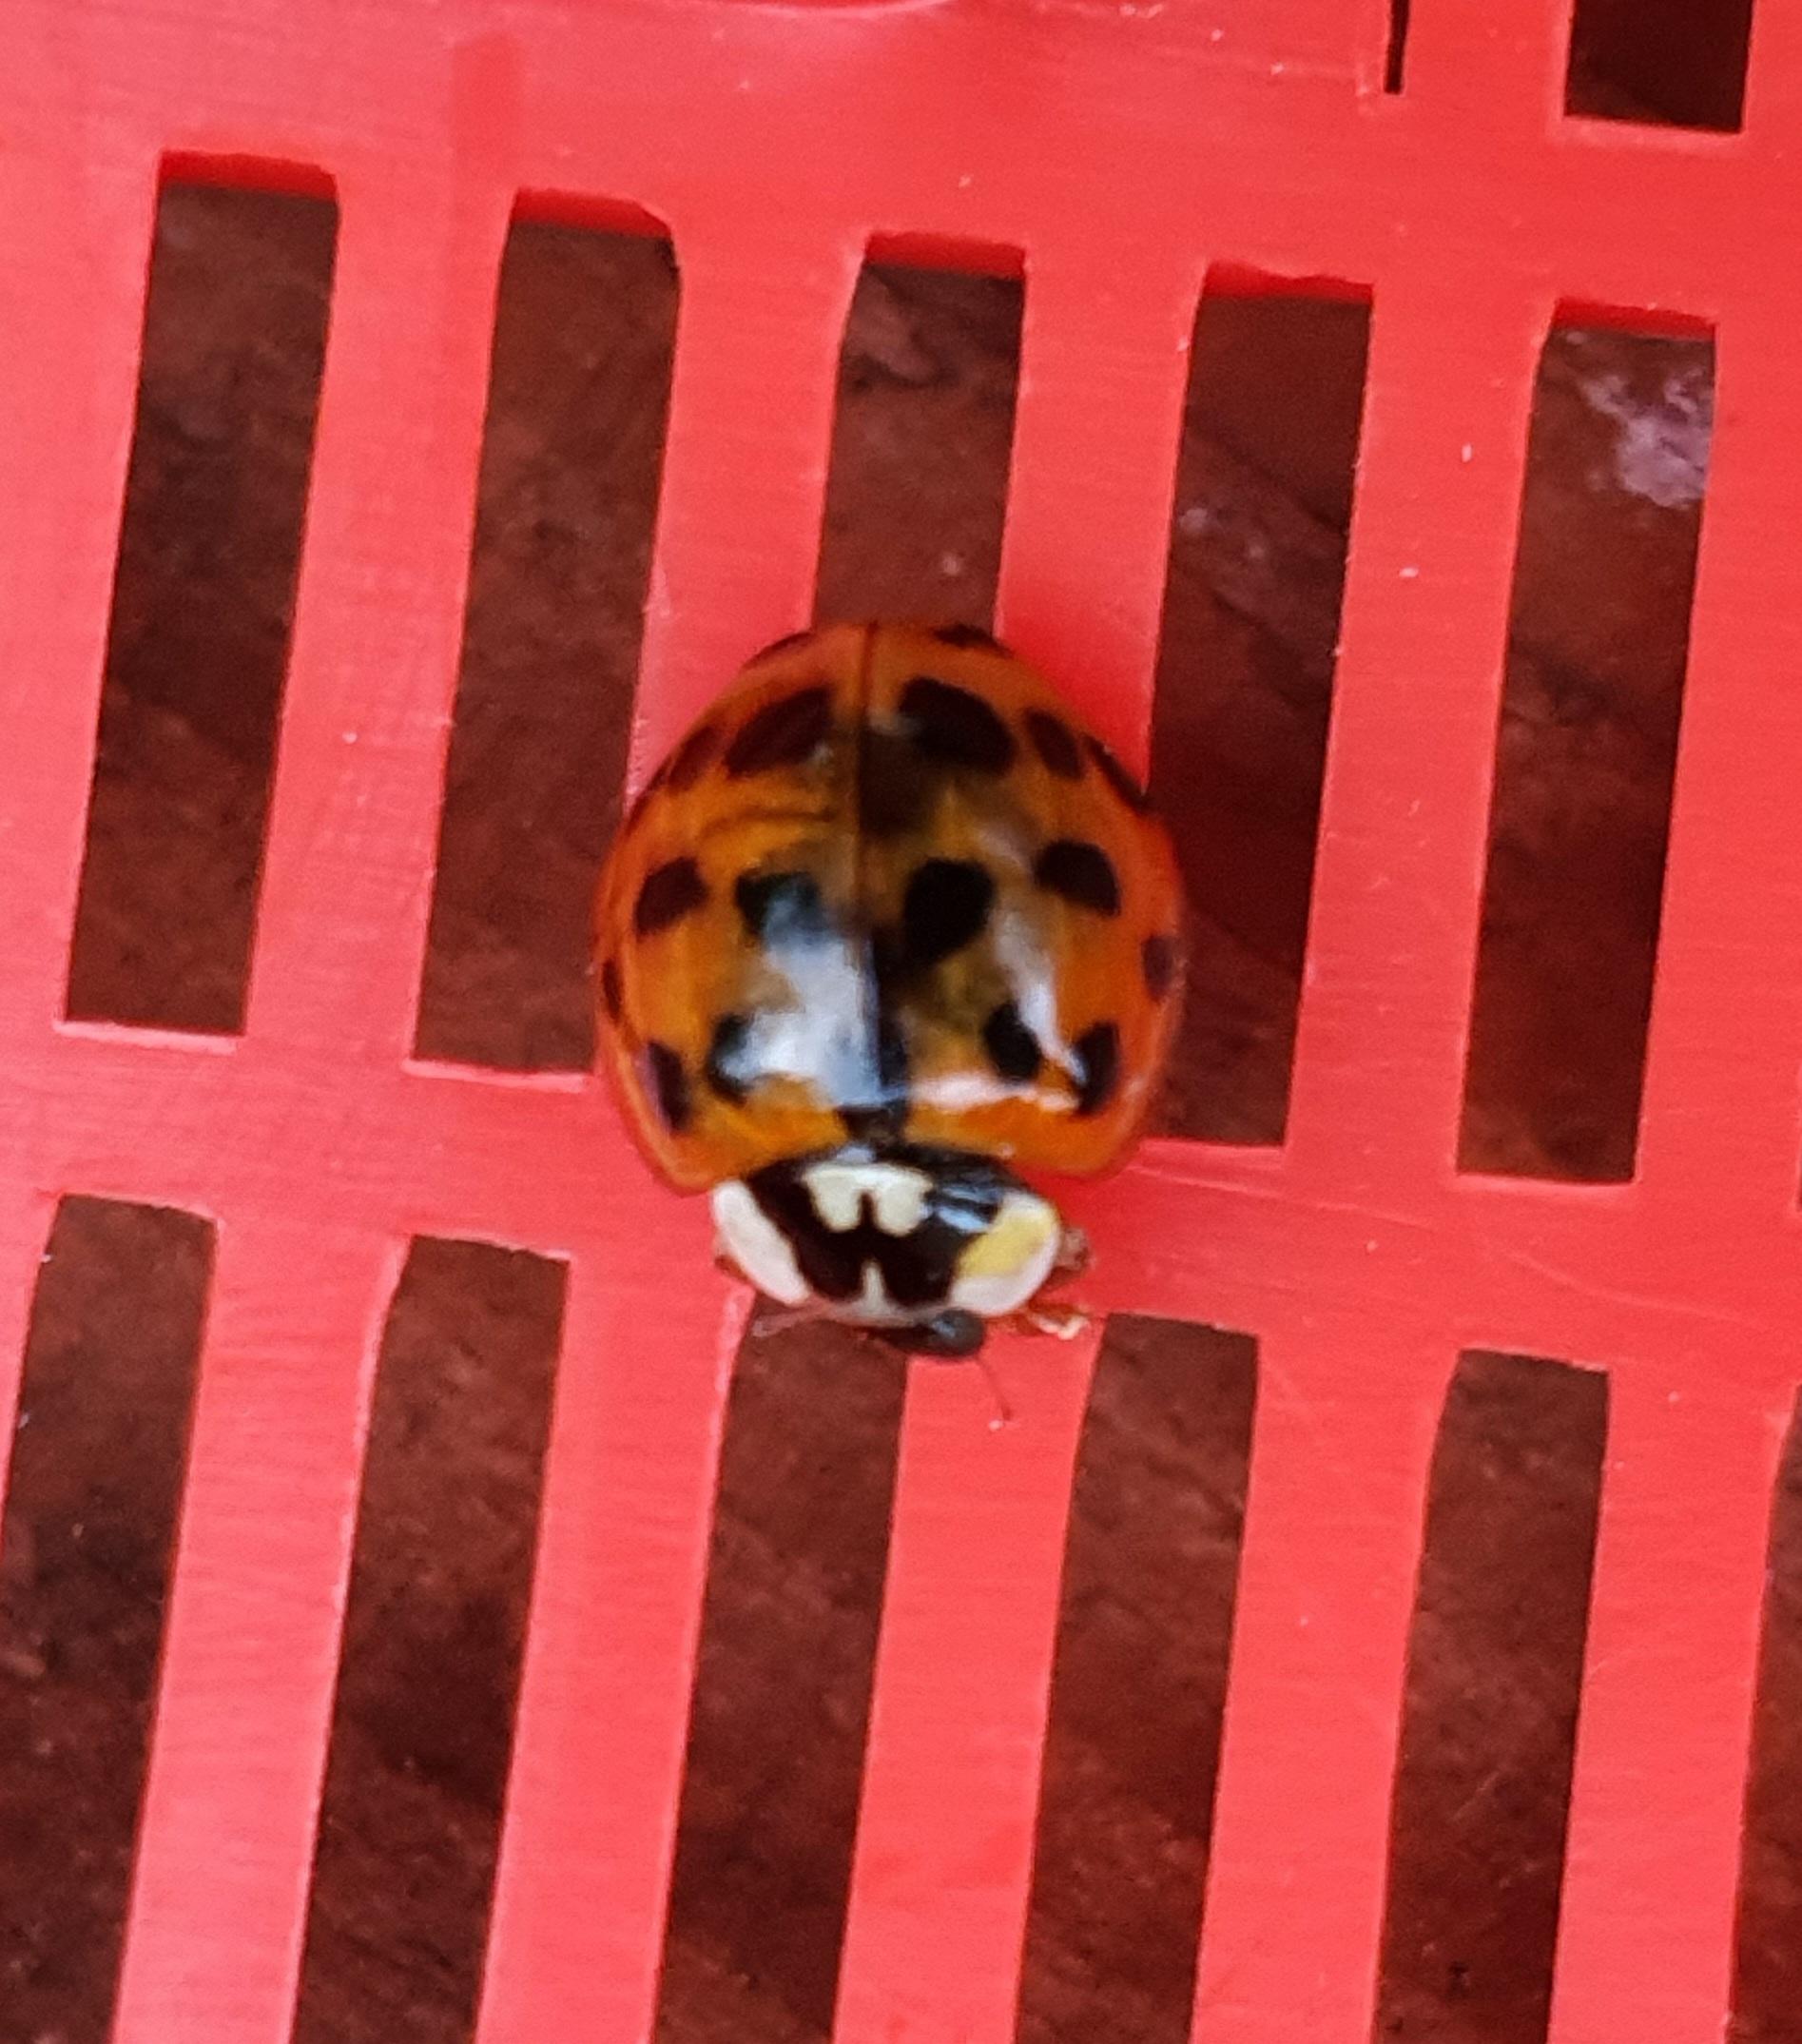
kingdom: Animalia
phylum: Arthropoda
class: Insecta
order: Coleoptera
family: Coccinellidae
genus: Harmonia
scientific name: Harmonia axyridis
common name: Harlekinmariehøne
